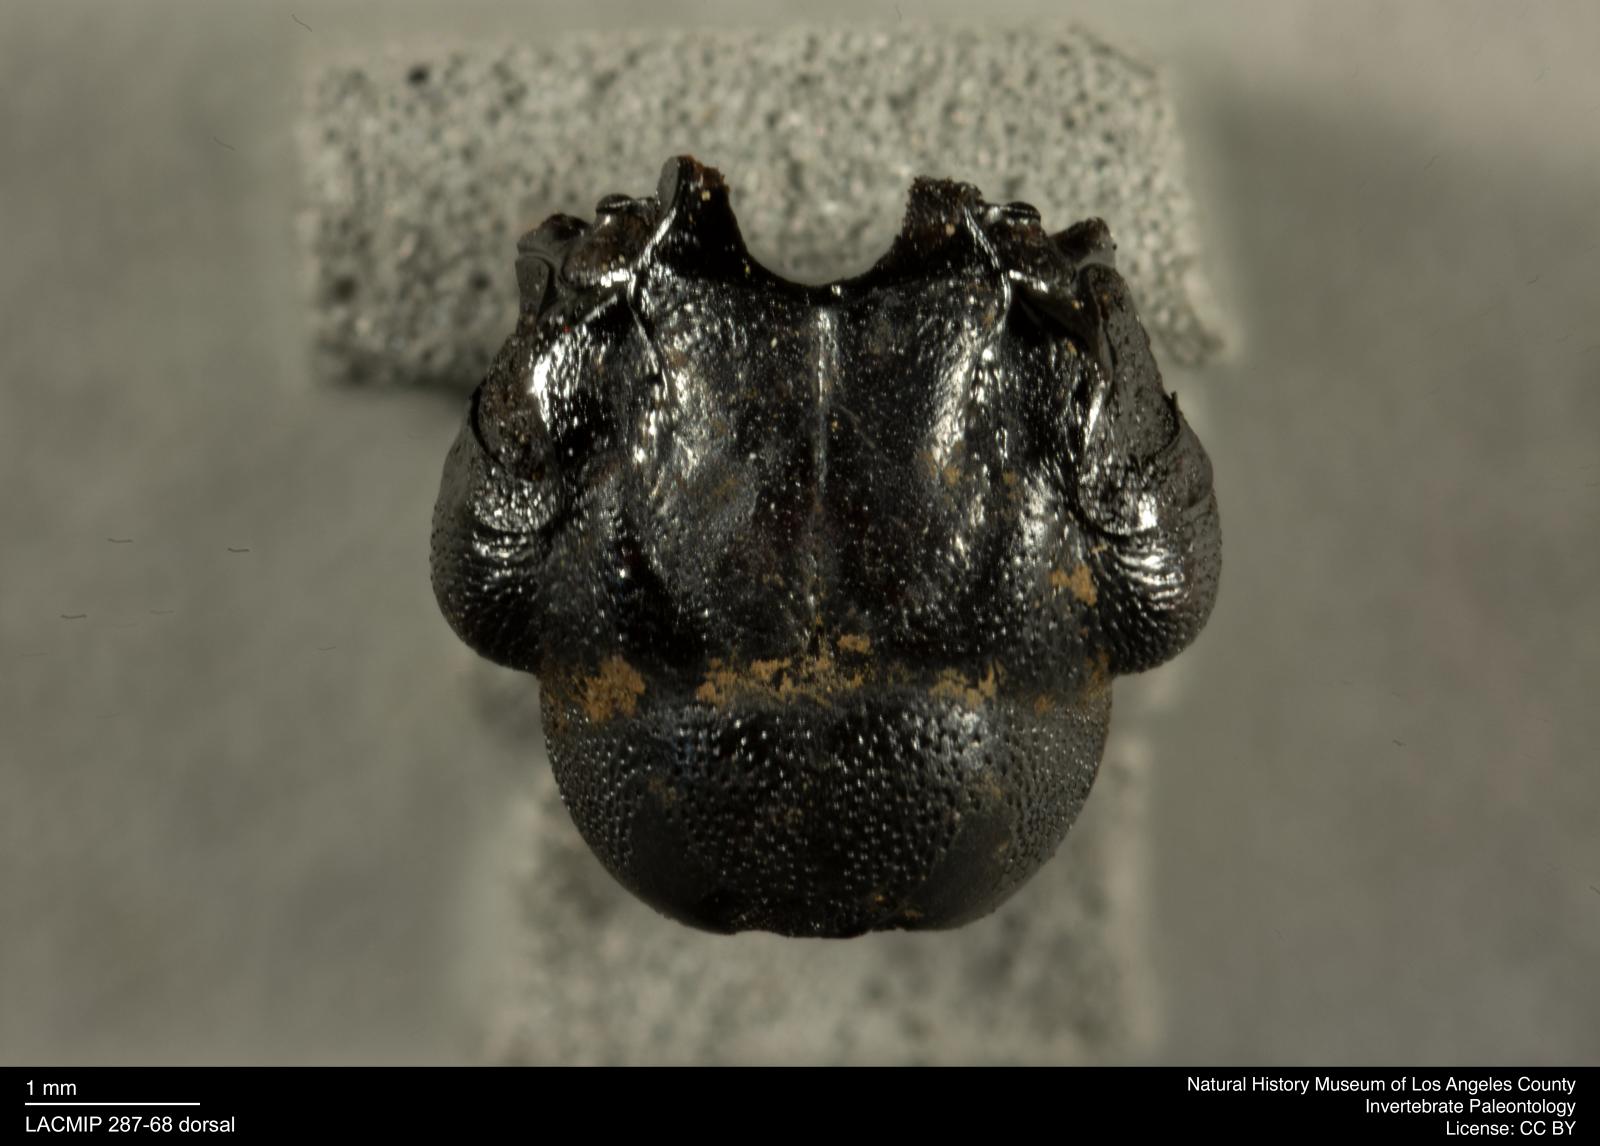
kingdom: Animalia
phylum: Arthropoda
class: Insecta
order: Coleoptera
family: Staphylinidae
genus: Nicrophorus
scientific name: Nicrophorus marginatus
